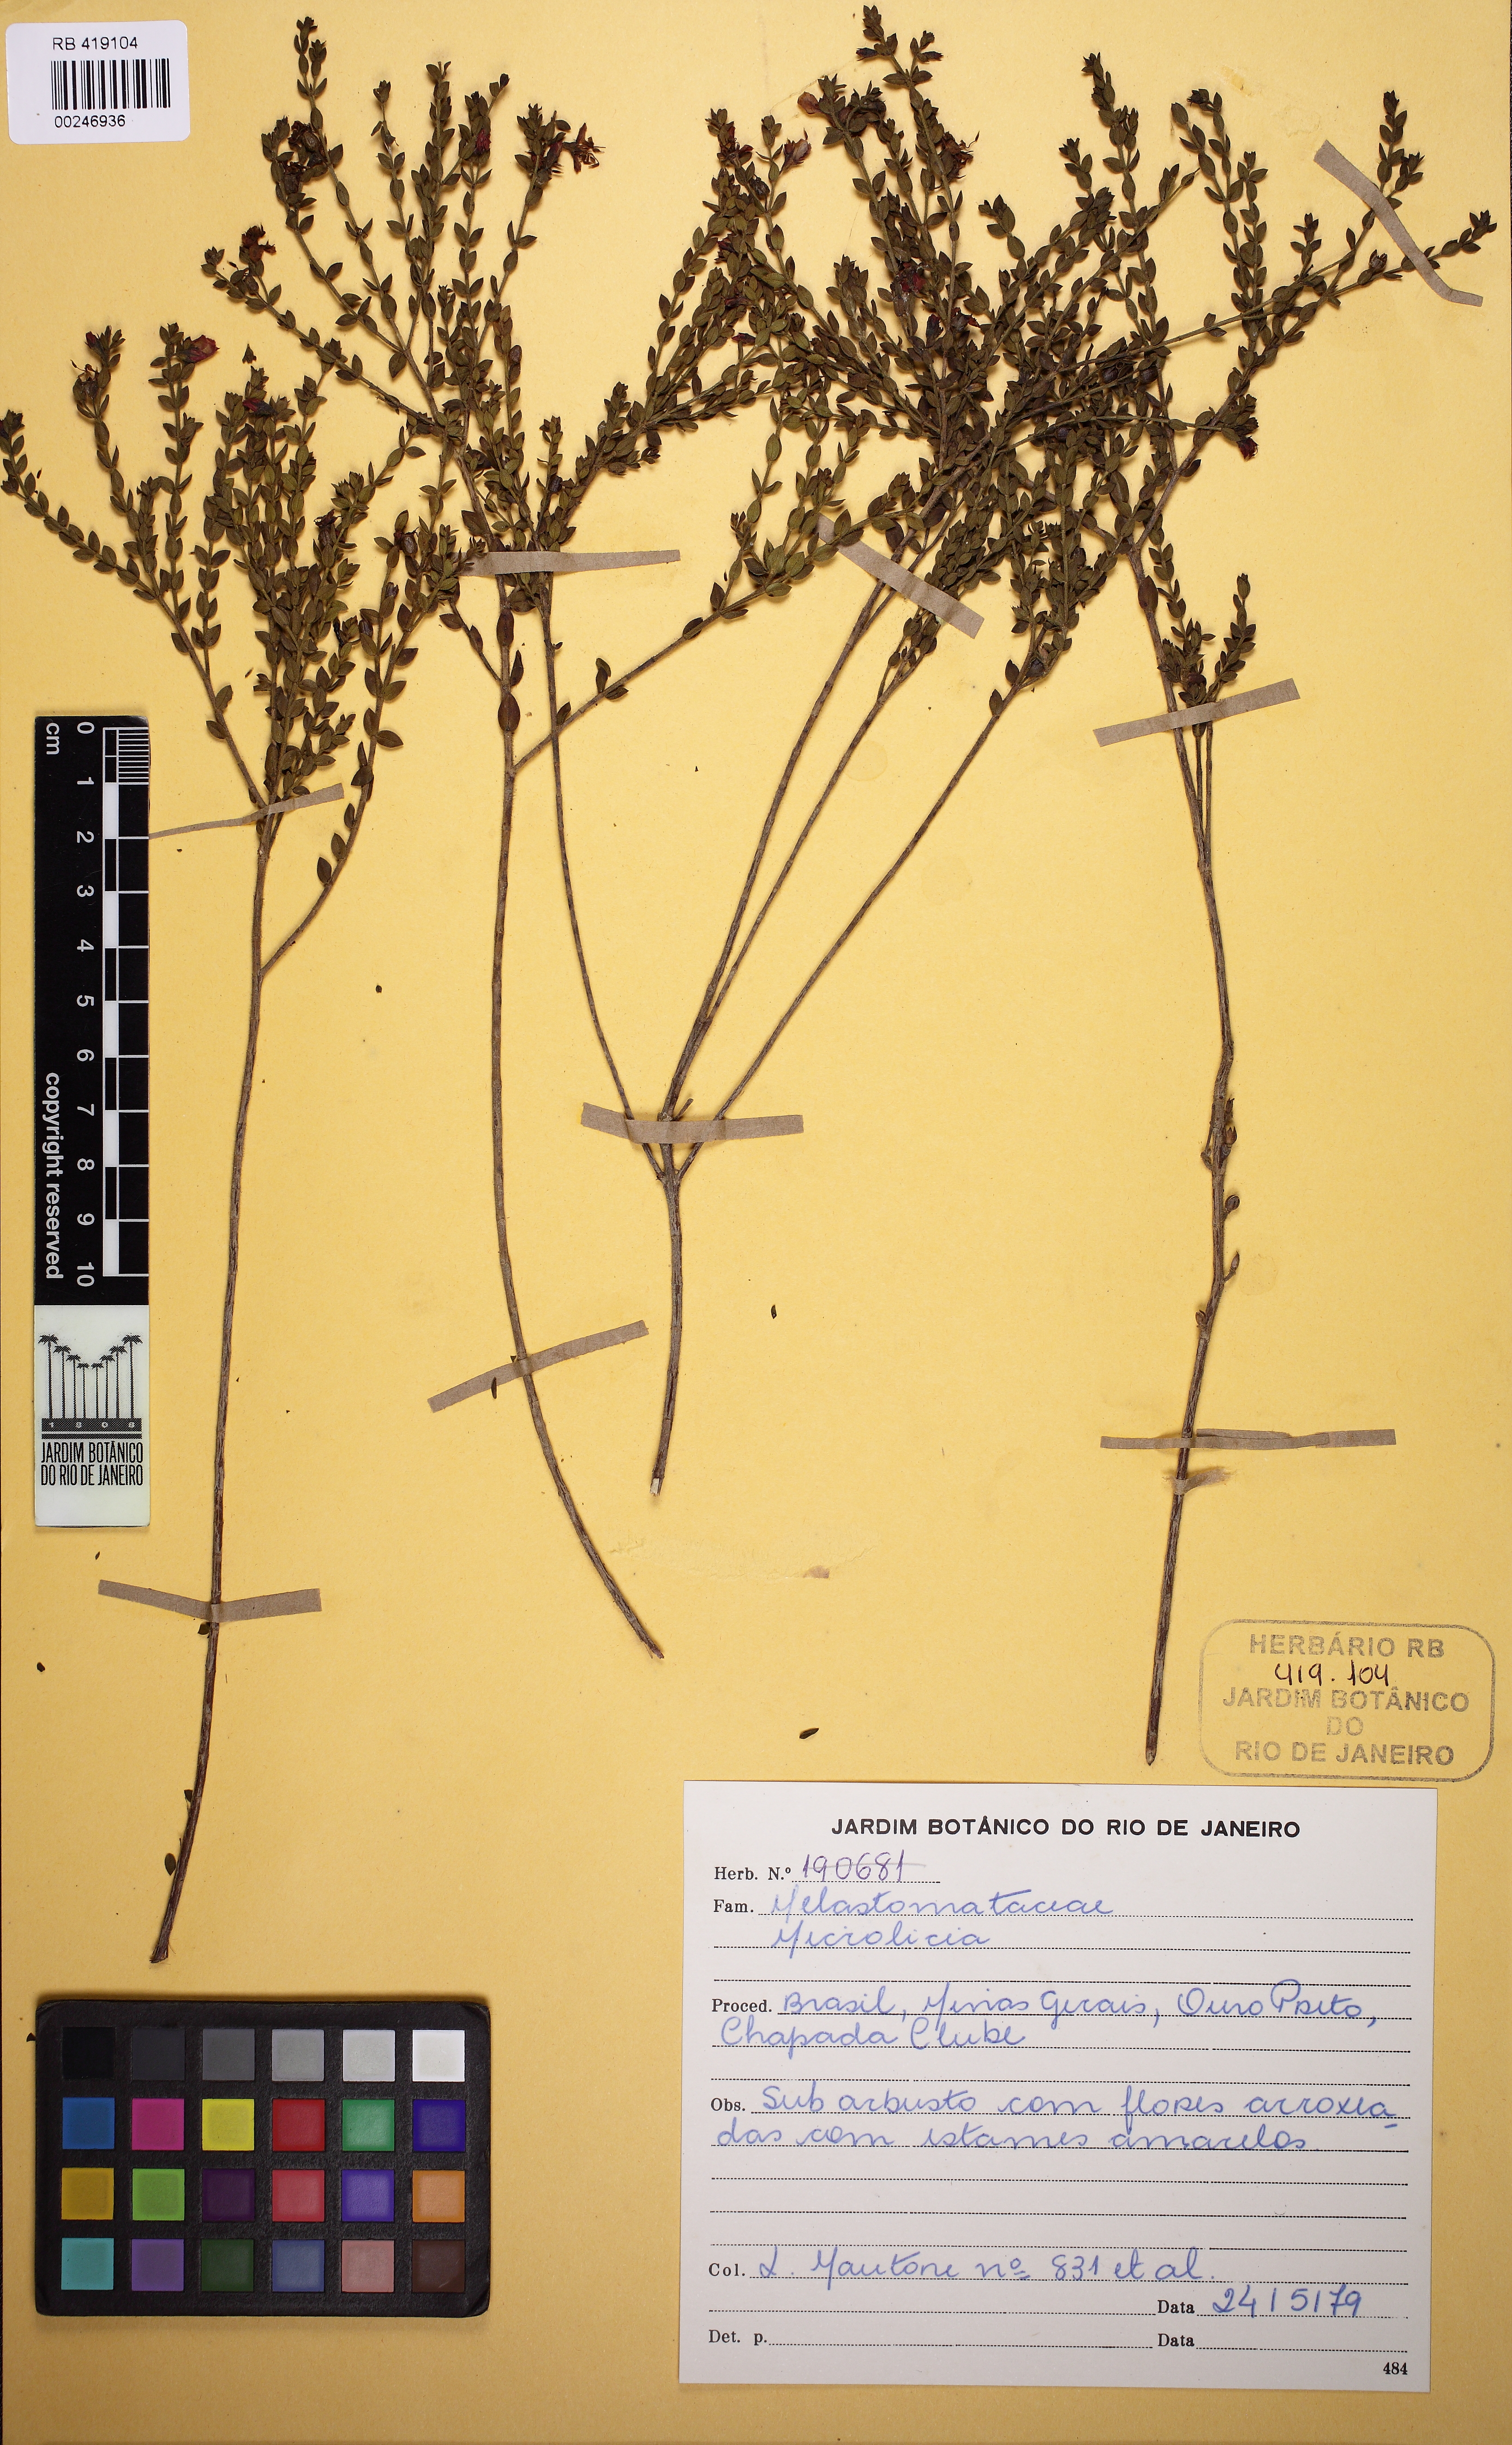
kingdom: Plantae
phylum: Tracheophyta
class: Magnoliopsida
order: Myrtales
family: Melastomataceae
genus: Microlicia
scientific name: Microlicia confertiflora
